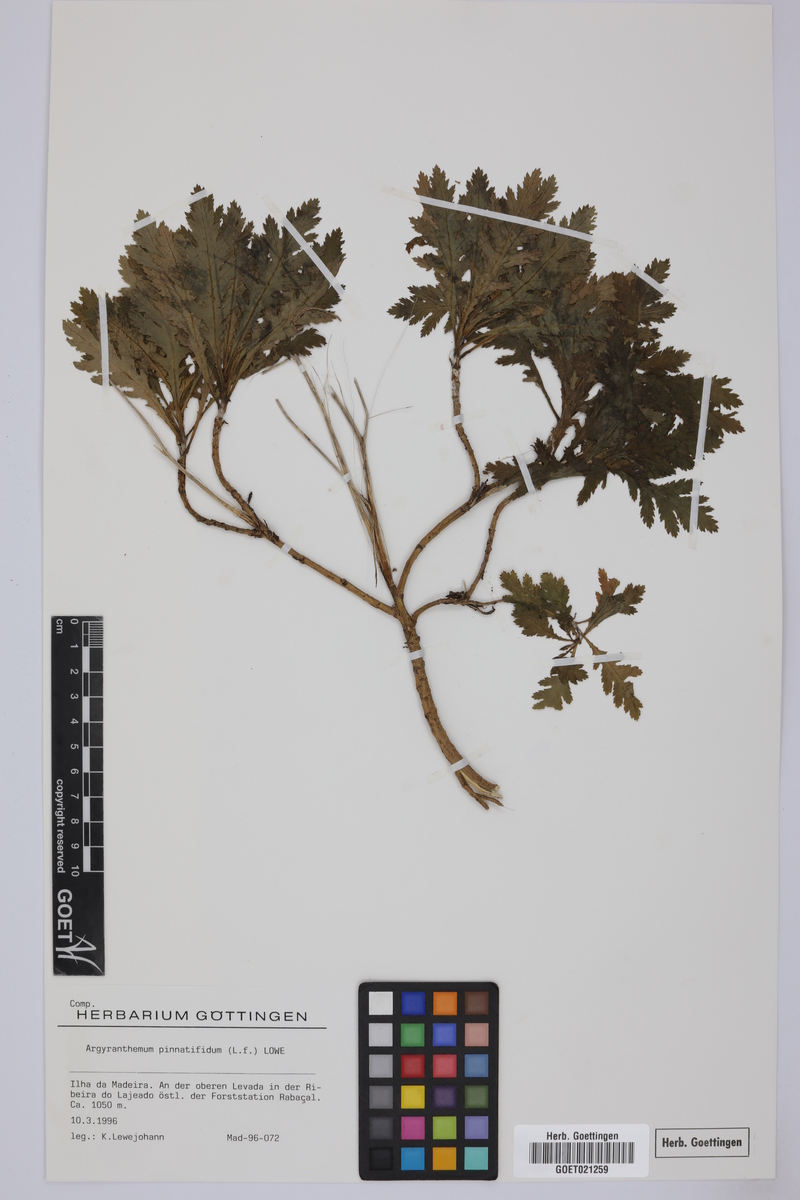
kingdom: Plantae
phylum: Tracheophyta
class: Magnoliopsida
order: Asterales
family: Asteraceae
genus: Argyranthemum
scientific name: Argyranthemum pinnatifidum
